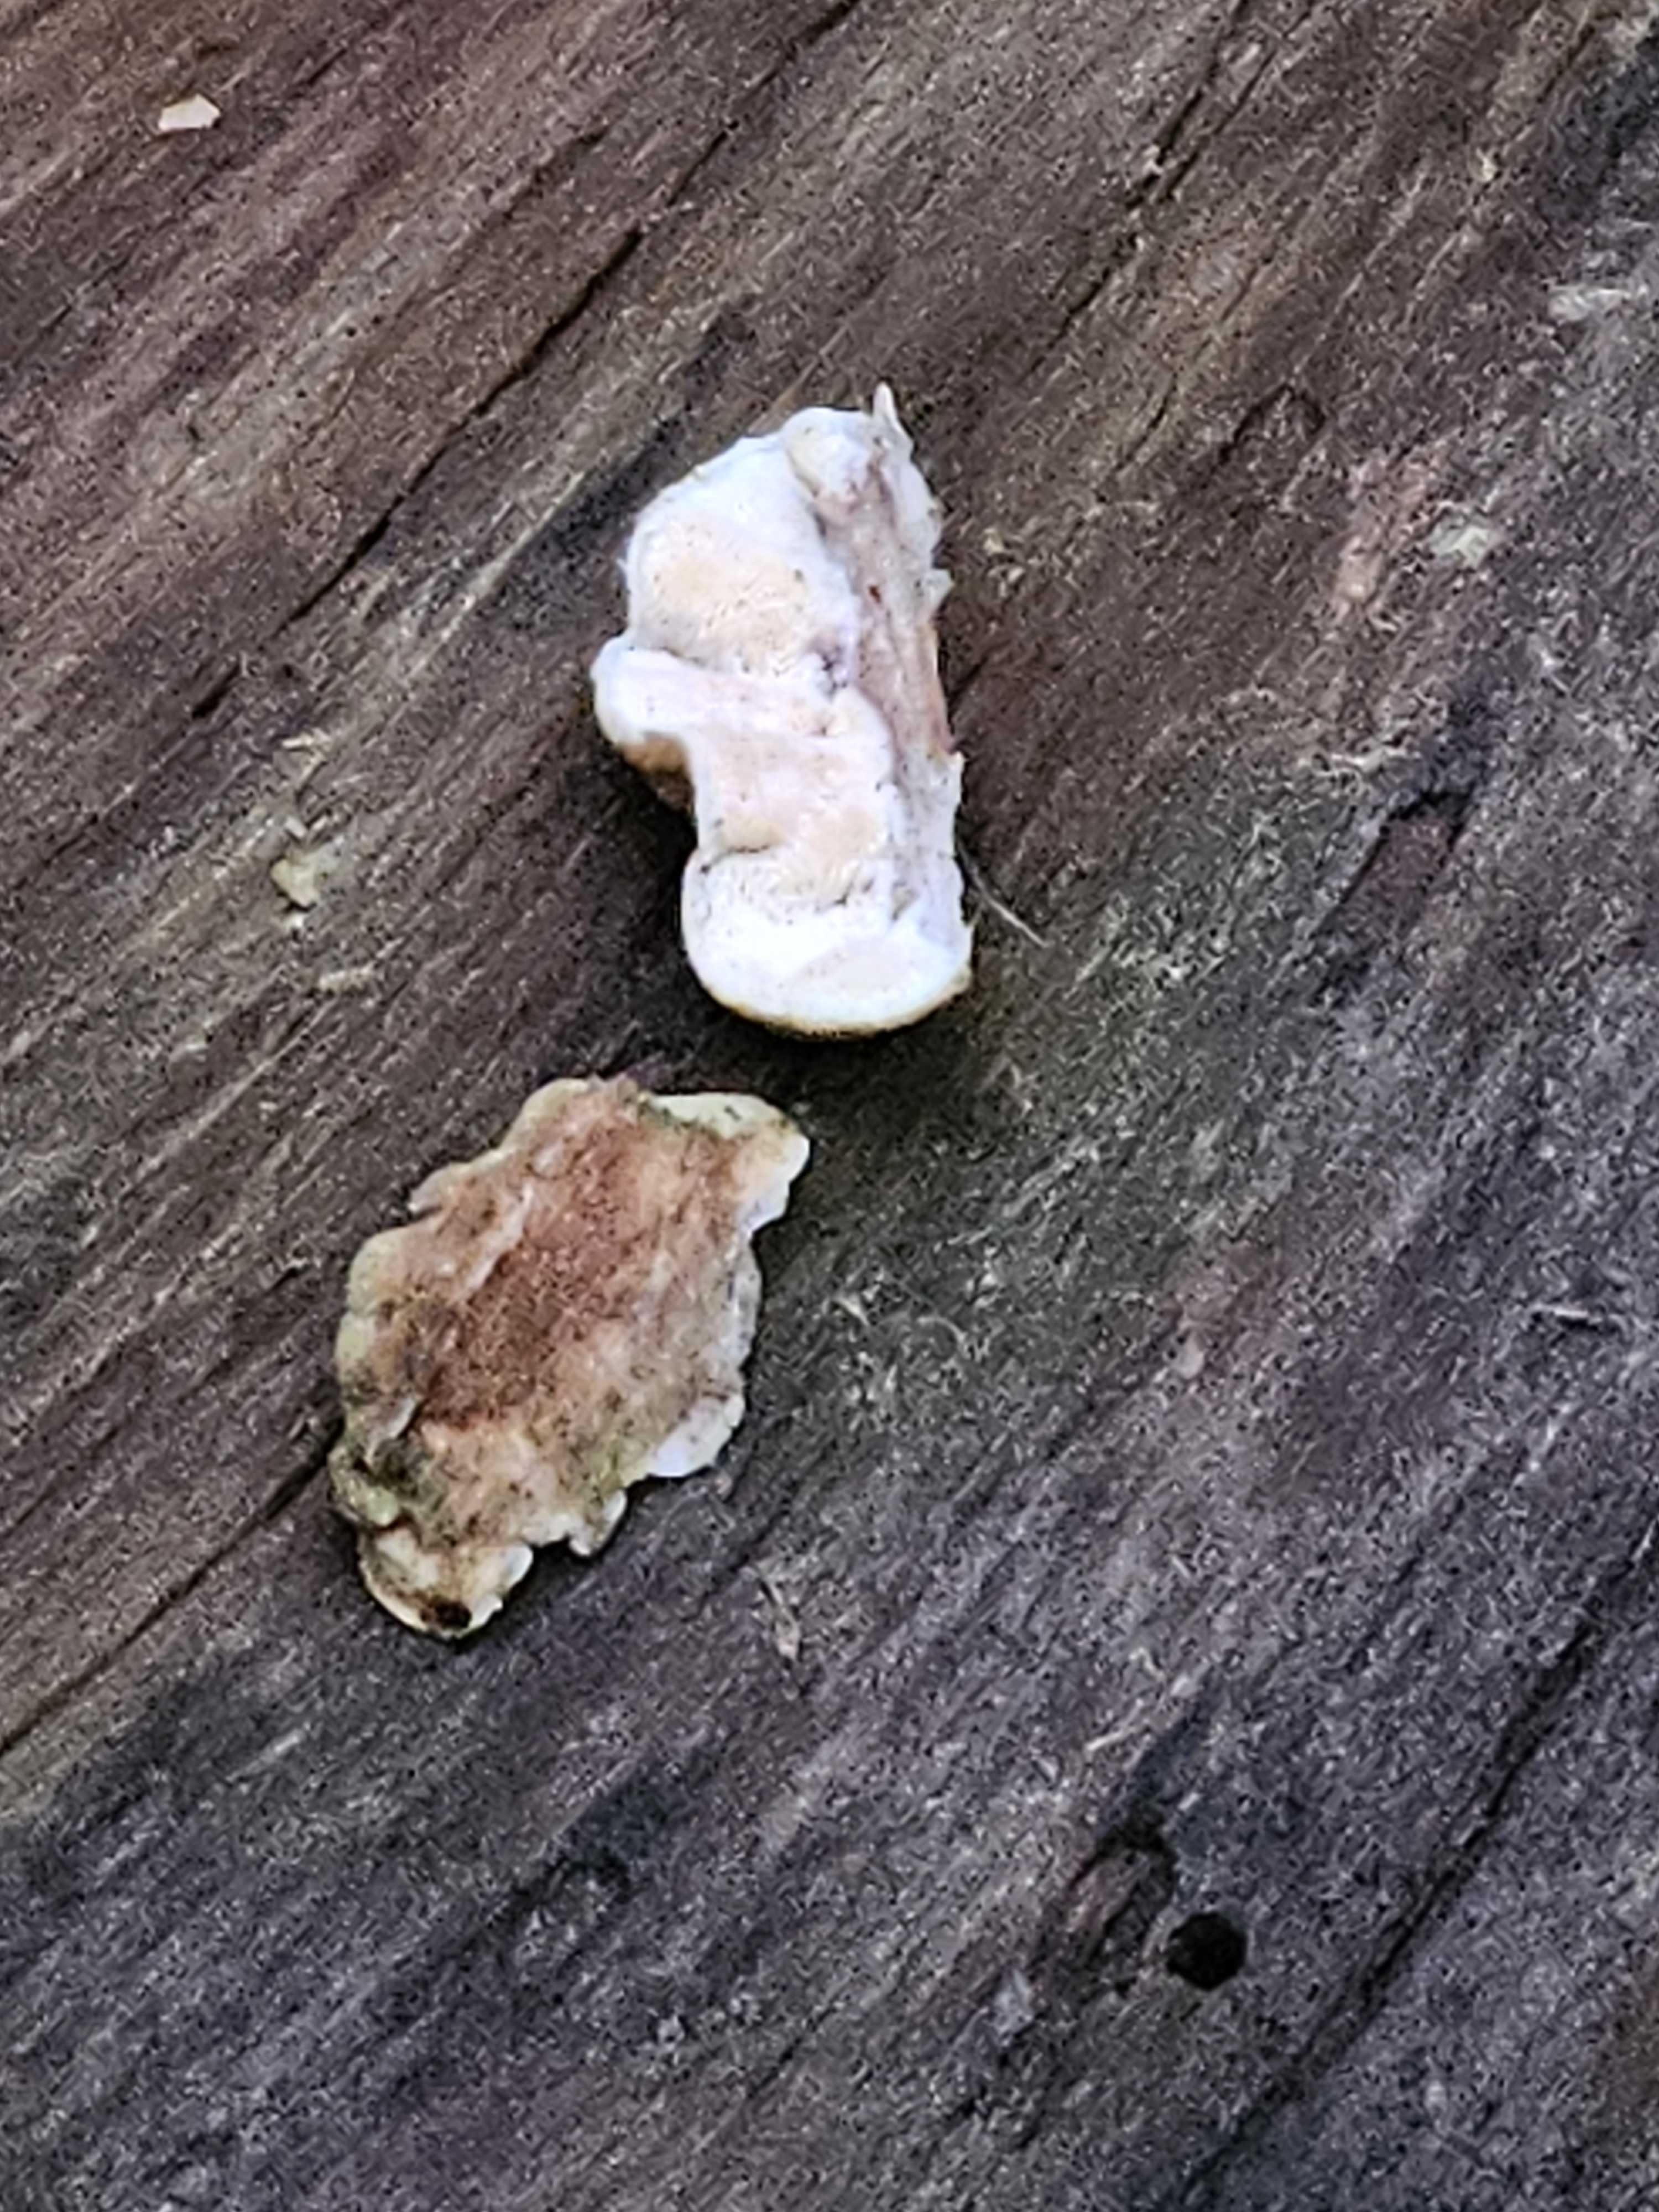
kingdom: Fungi
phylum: Basidiomycota
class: Agaricomycetes
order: Polyporales
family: Incrustoporiaceae
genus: Skeletocutis
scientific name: Skeletocutis amorpha
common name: orange krystalporesvamp
